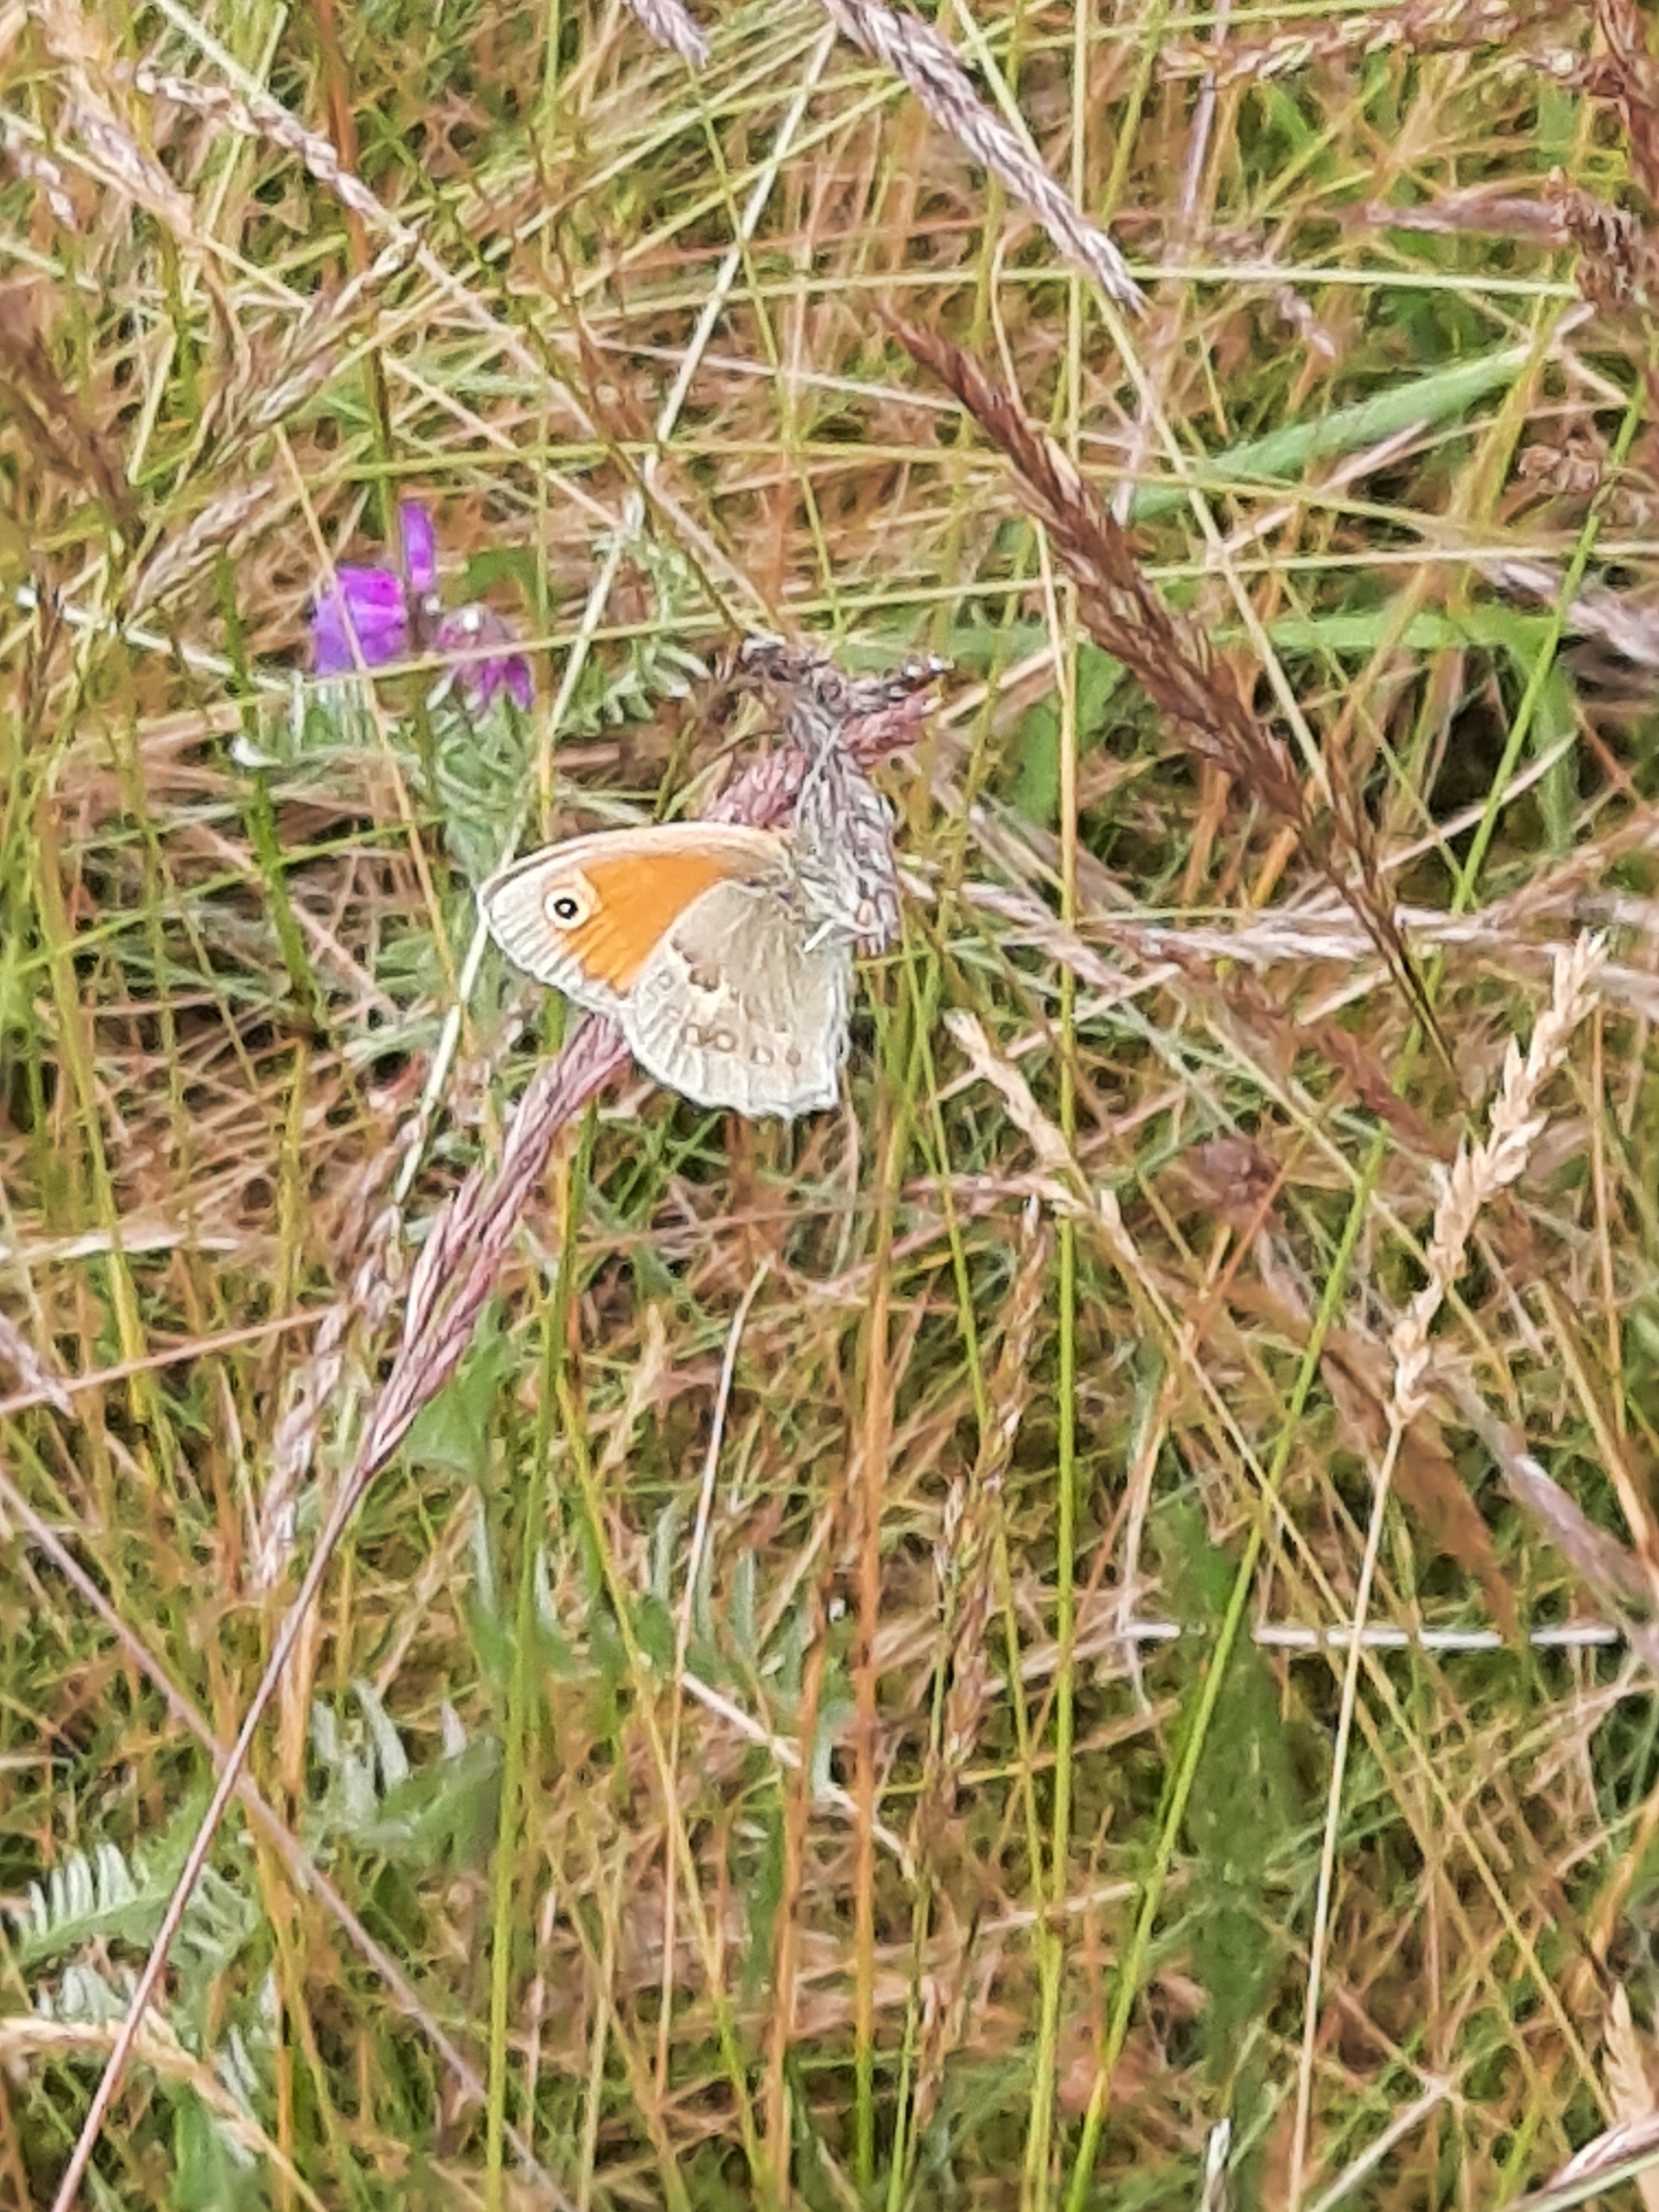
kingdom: Animalia
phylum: Arthropoda
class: Insecta
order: Lepidoptera
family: Nymphalidae
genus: Coenonympha
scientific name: Coenonympha pamphilus
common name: Okkergul randøje
